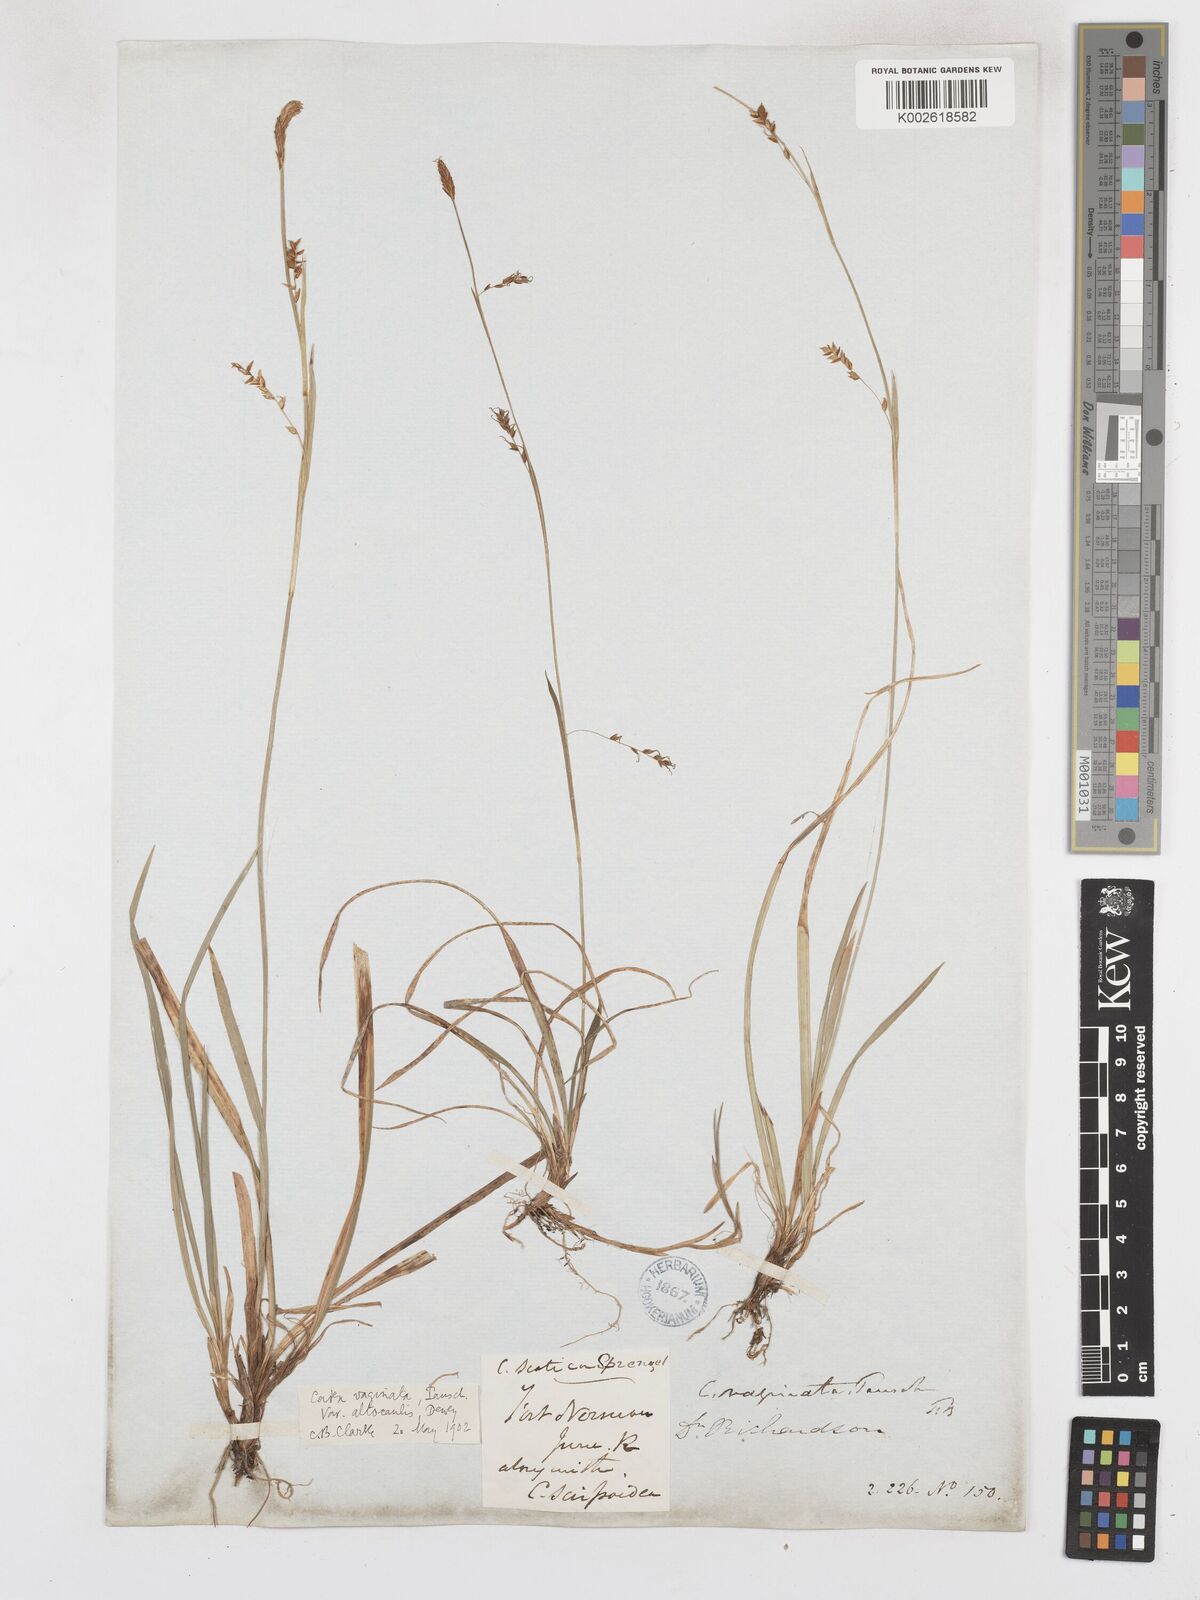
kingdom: Plantae
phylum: Tracheophyta
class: Liliopsida
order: Poales
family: Cyperaceae
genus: Carex
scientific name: Carex vaginata
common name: Sheathed sedge
